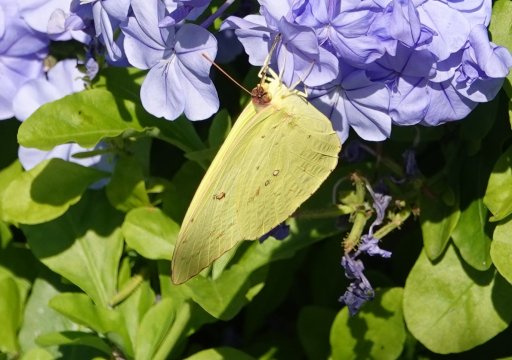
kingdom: Animalia
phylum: Arthropoda
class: Insecta
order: Lepidoptera
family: Pieridae
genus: Phoebis
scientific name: Phoebis sennae
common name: Cloudless Sulphur
